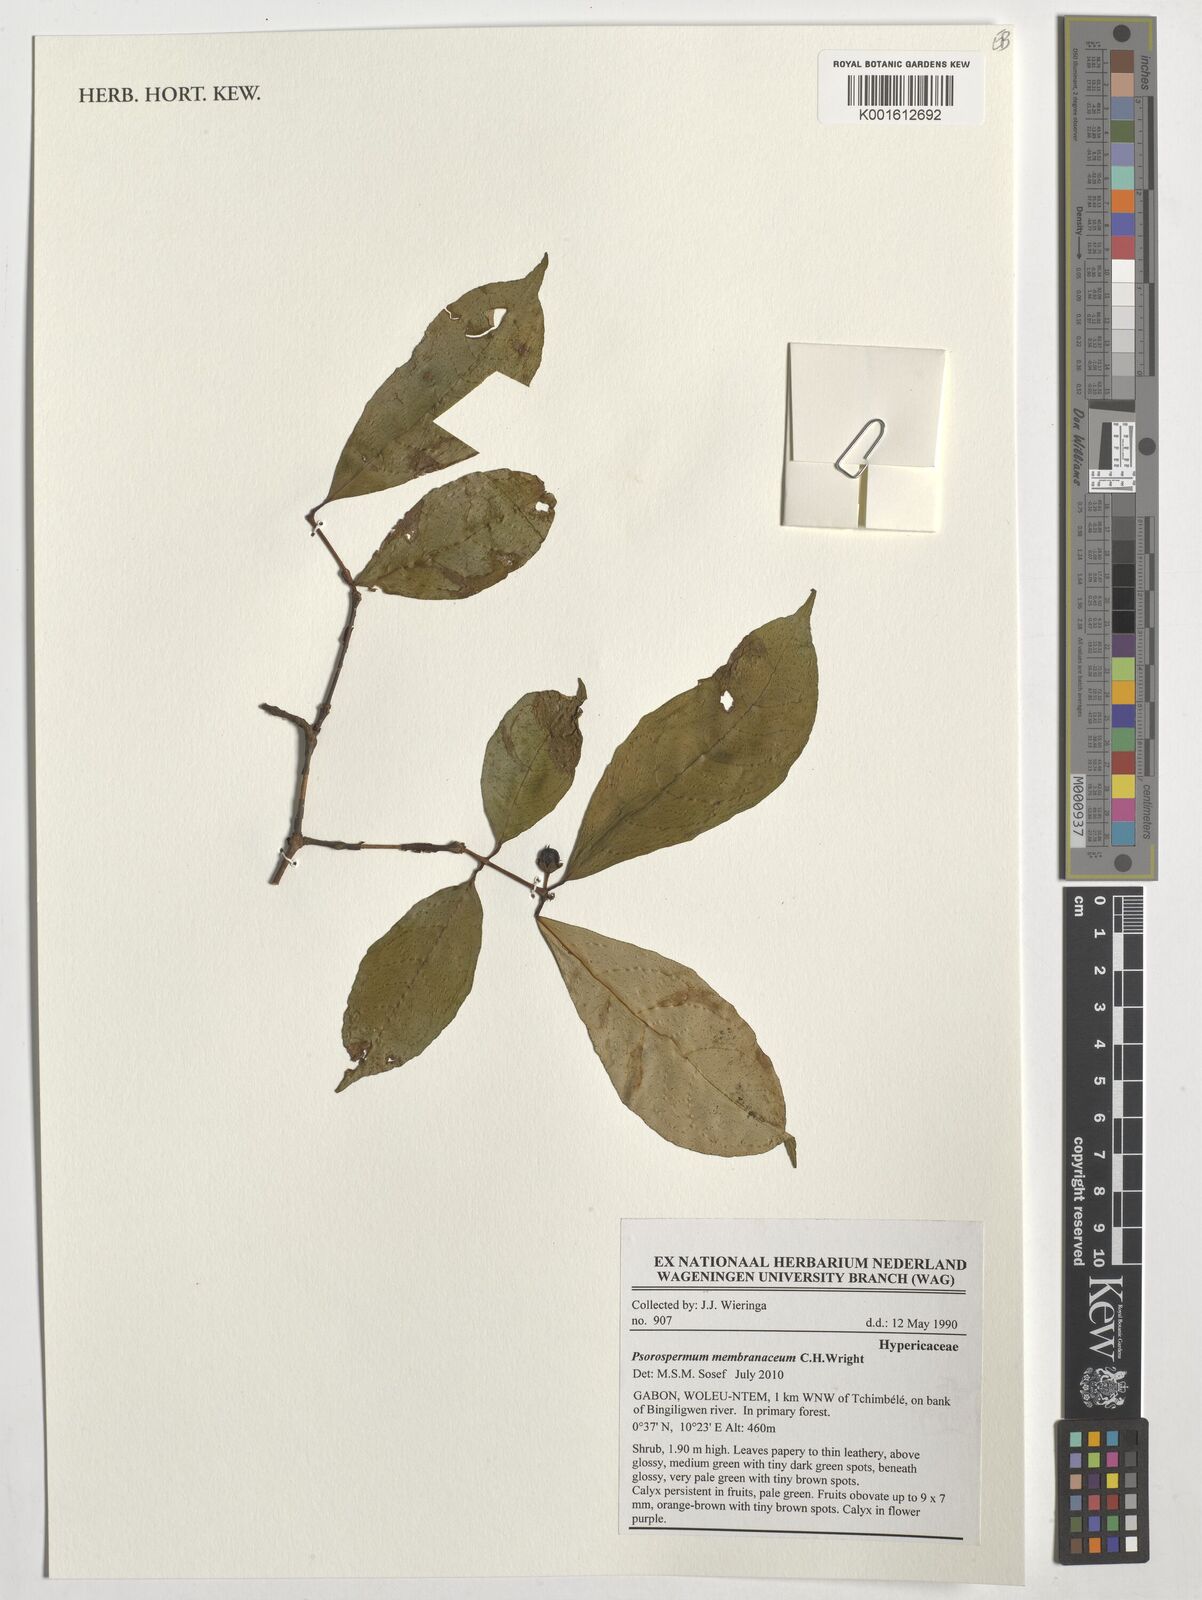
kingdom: Plantae
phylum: Tracheophyta
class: Magnoliopsida
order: Malpighiales
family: Hypericaceae
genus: Psorospermum
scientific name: Psorospermum membranaceum
